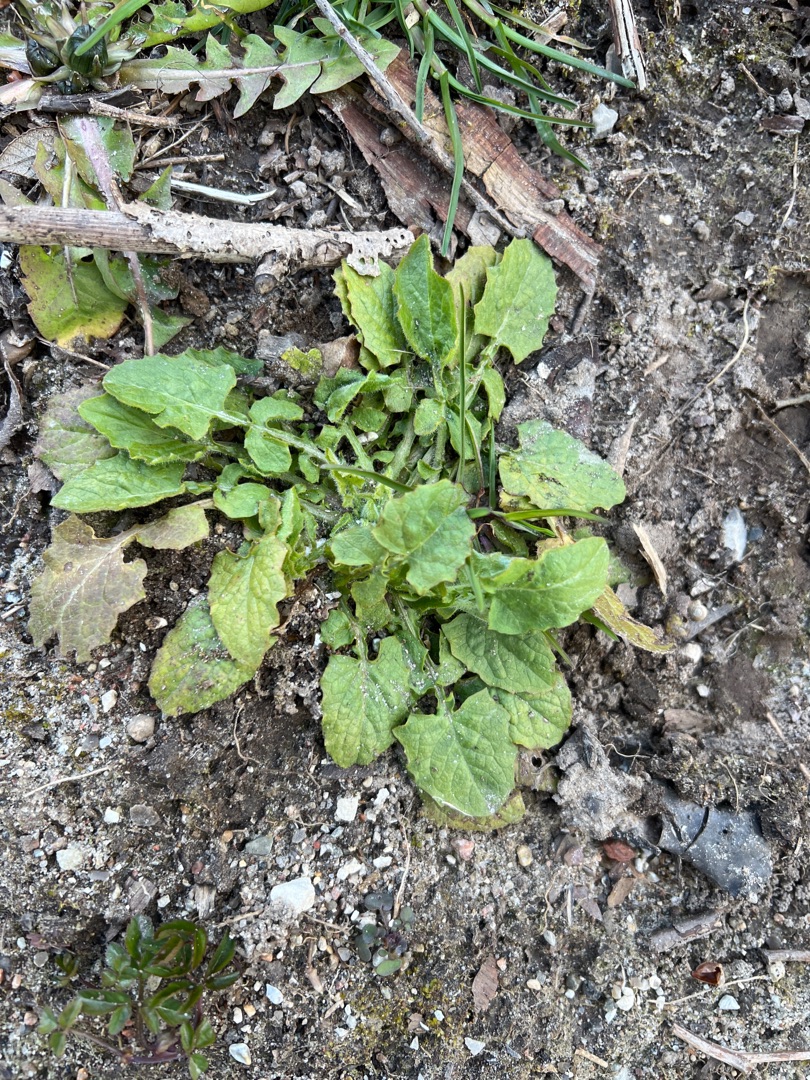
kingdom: Plantae
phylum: Tracheophyta
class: Magnoliopsida
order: Asterales
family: Asteraceae
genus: Lapsana
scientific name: Lapsana communis
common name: Haremad
